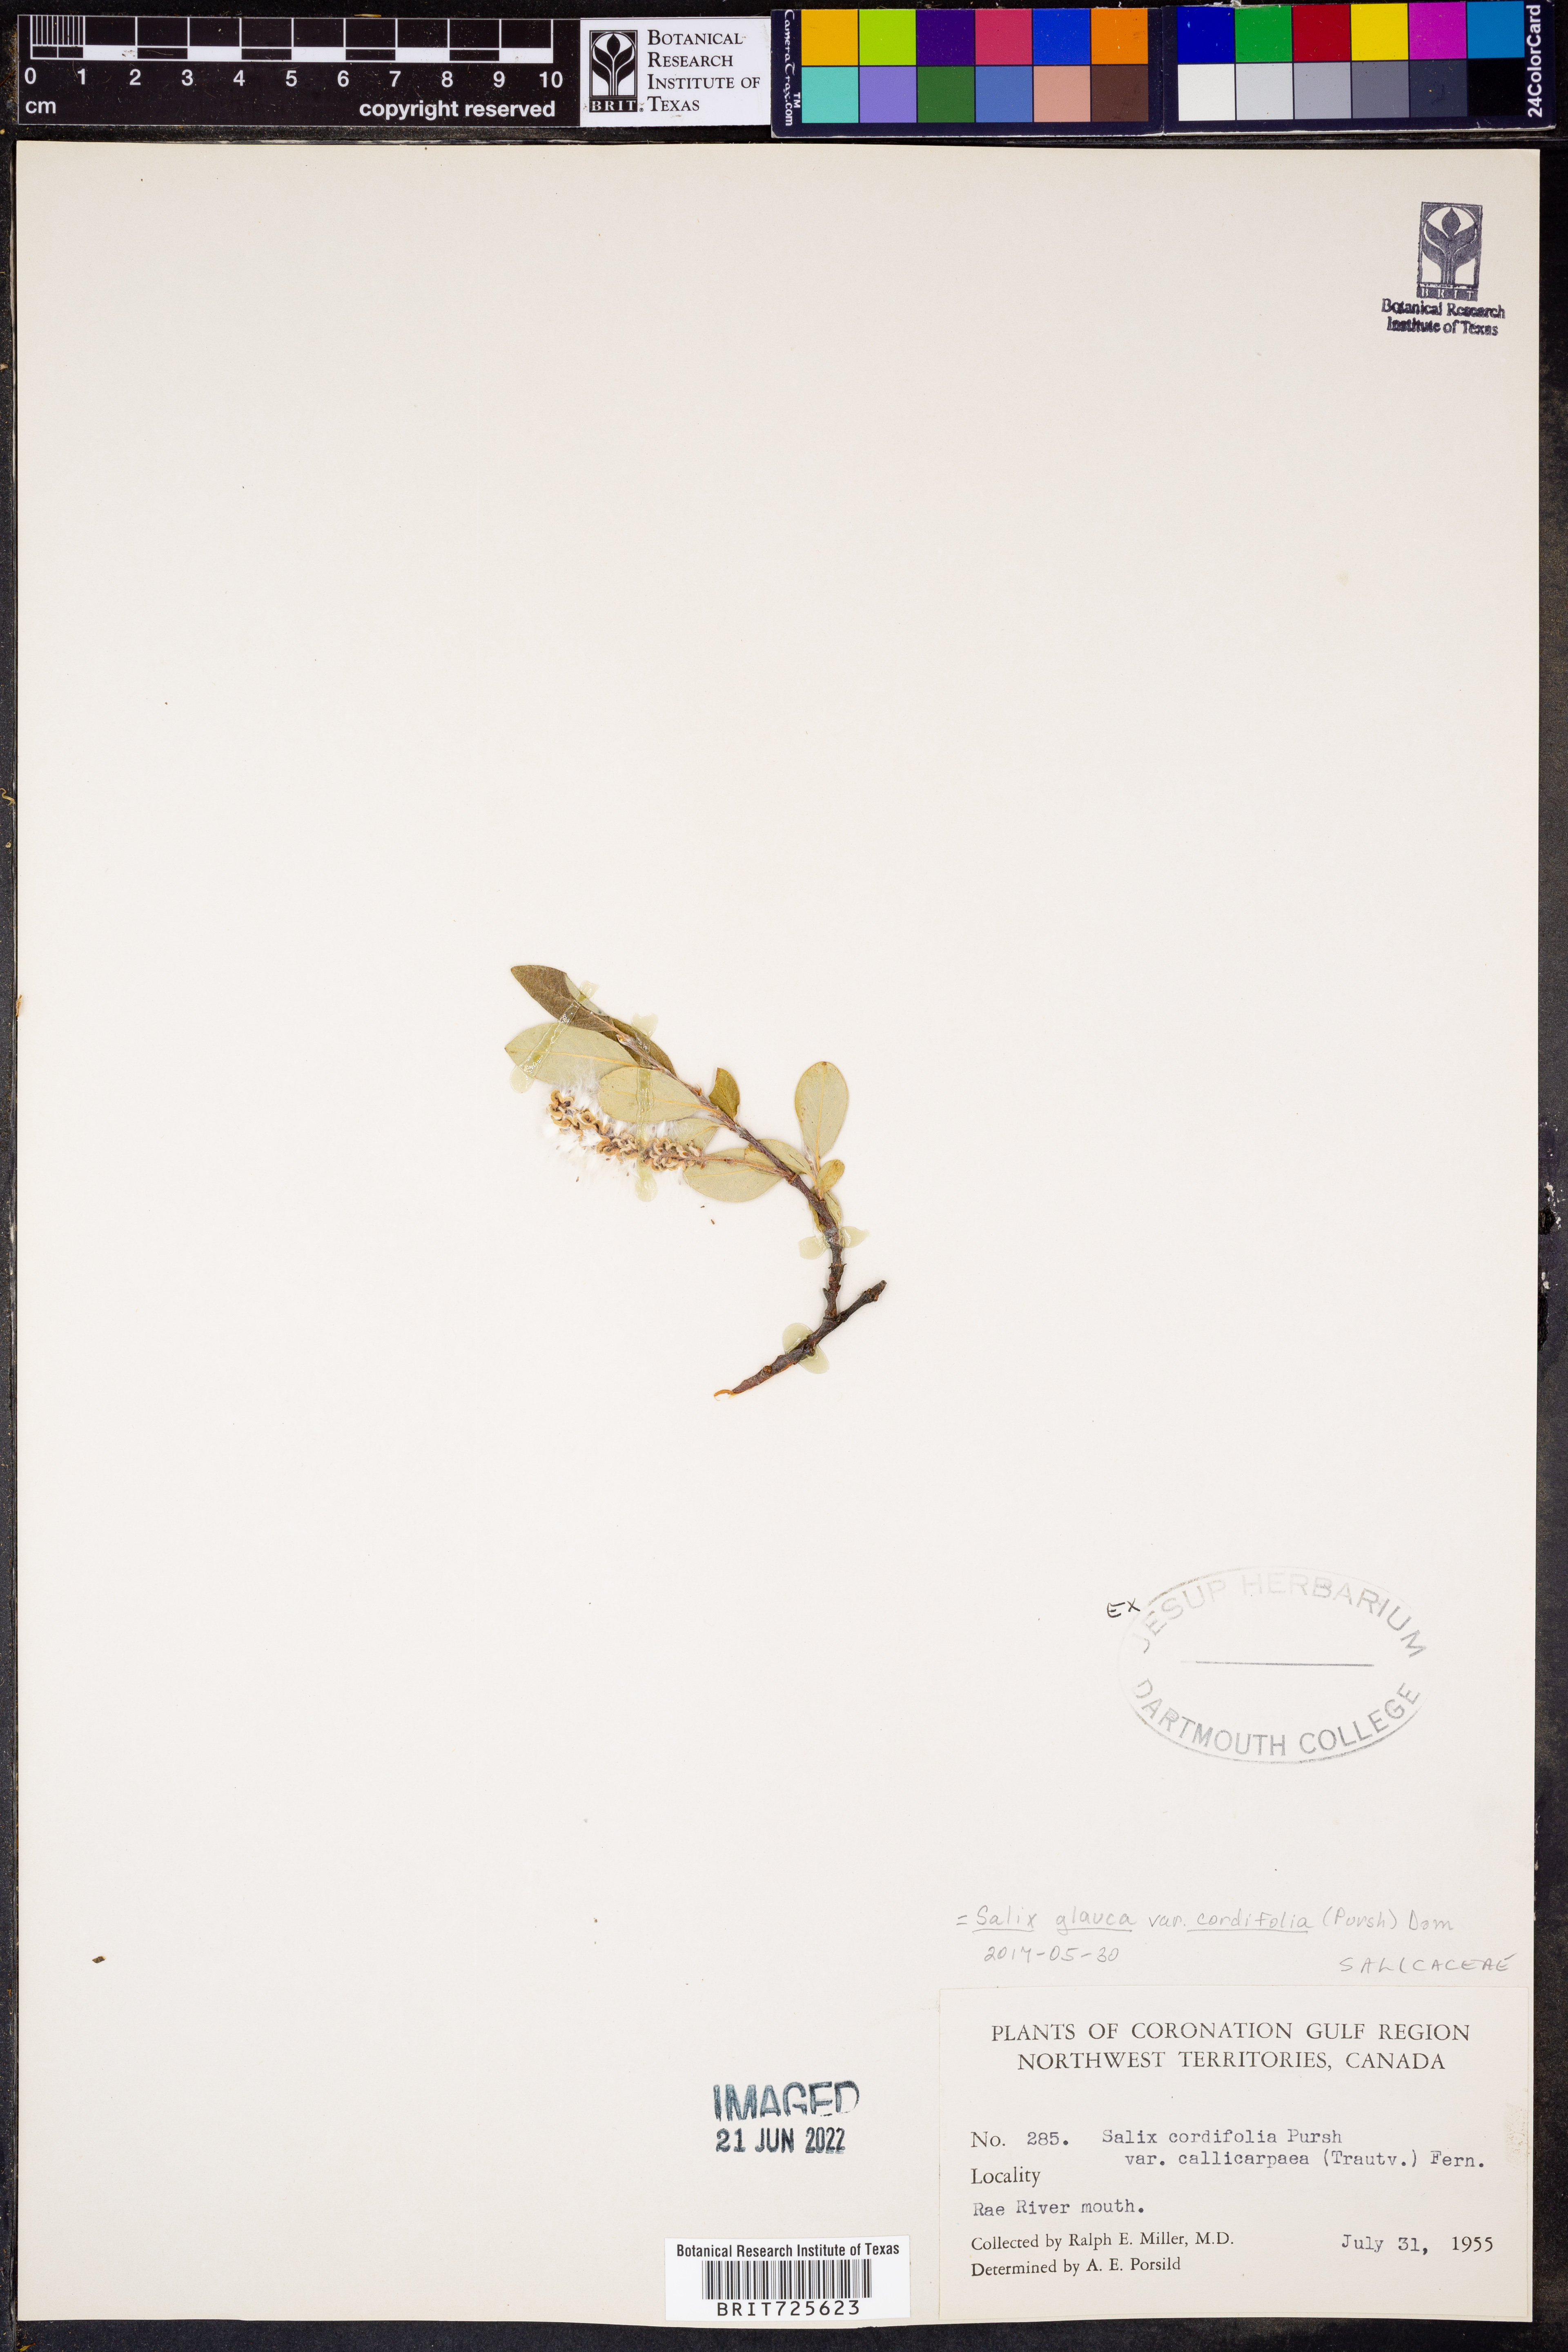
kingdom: Plantae
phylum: Tracheophyta
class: Magnoliopsida
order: Malpighiales
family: Salicaceae
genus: Salix
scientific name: Salix glauca
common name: Glaucous willow
